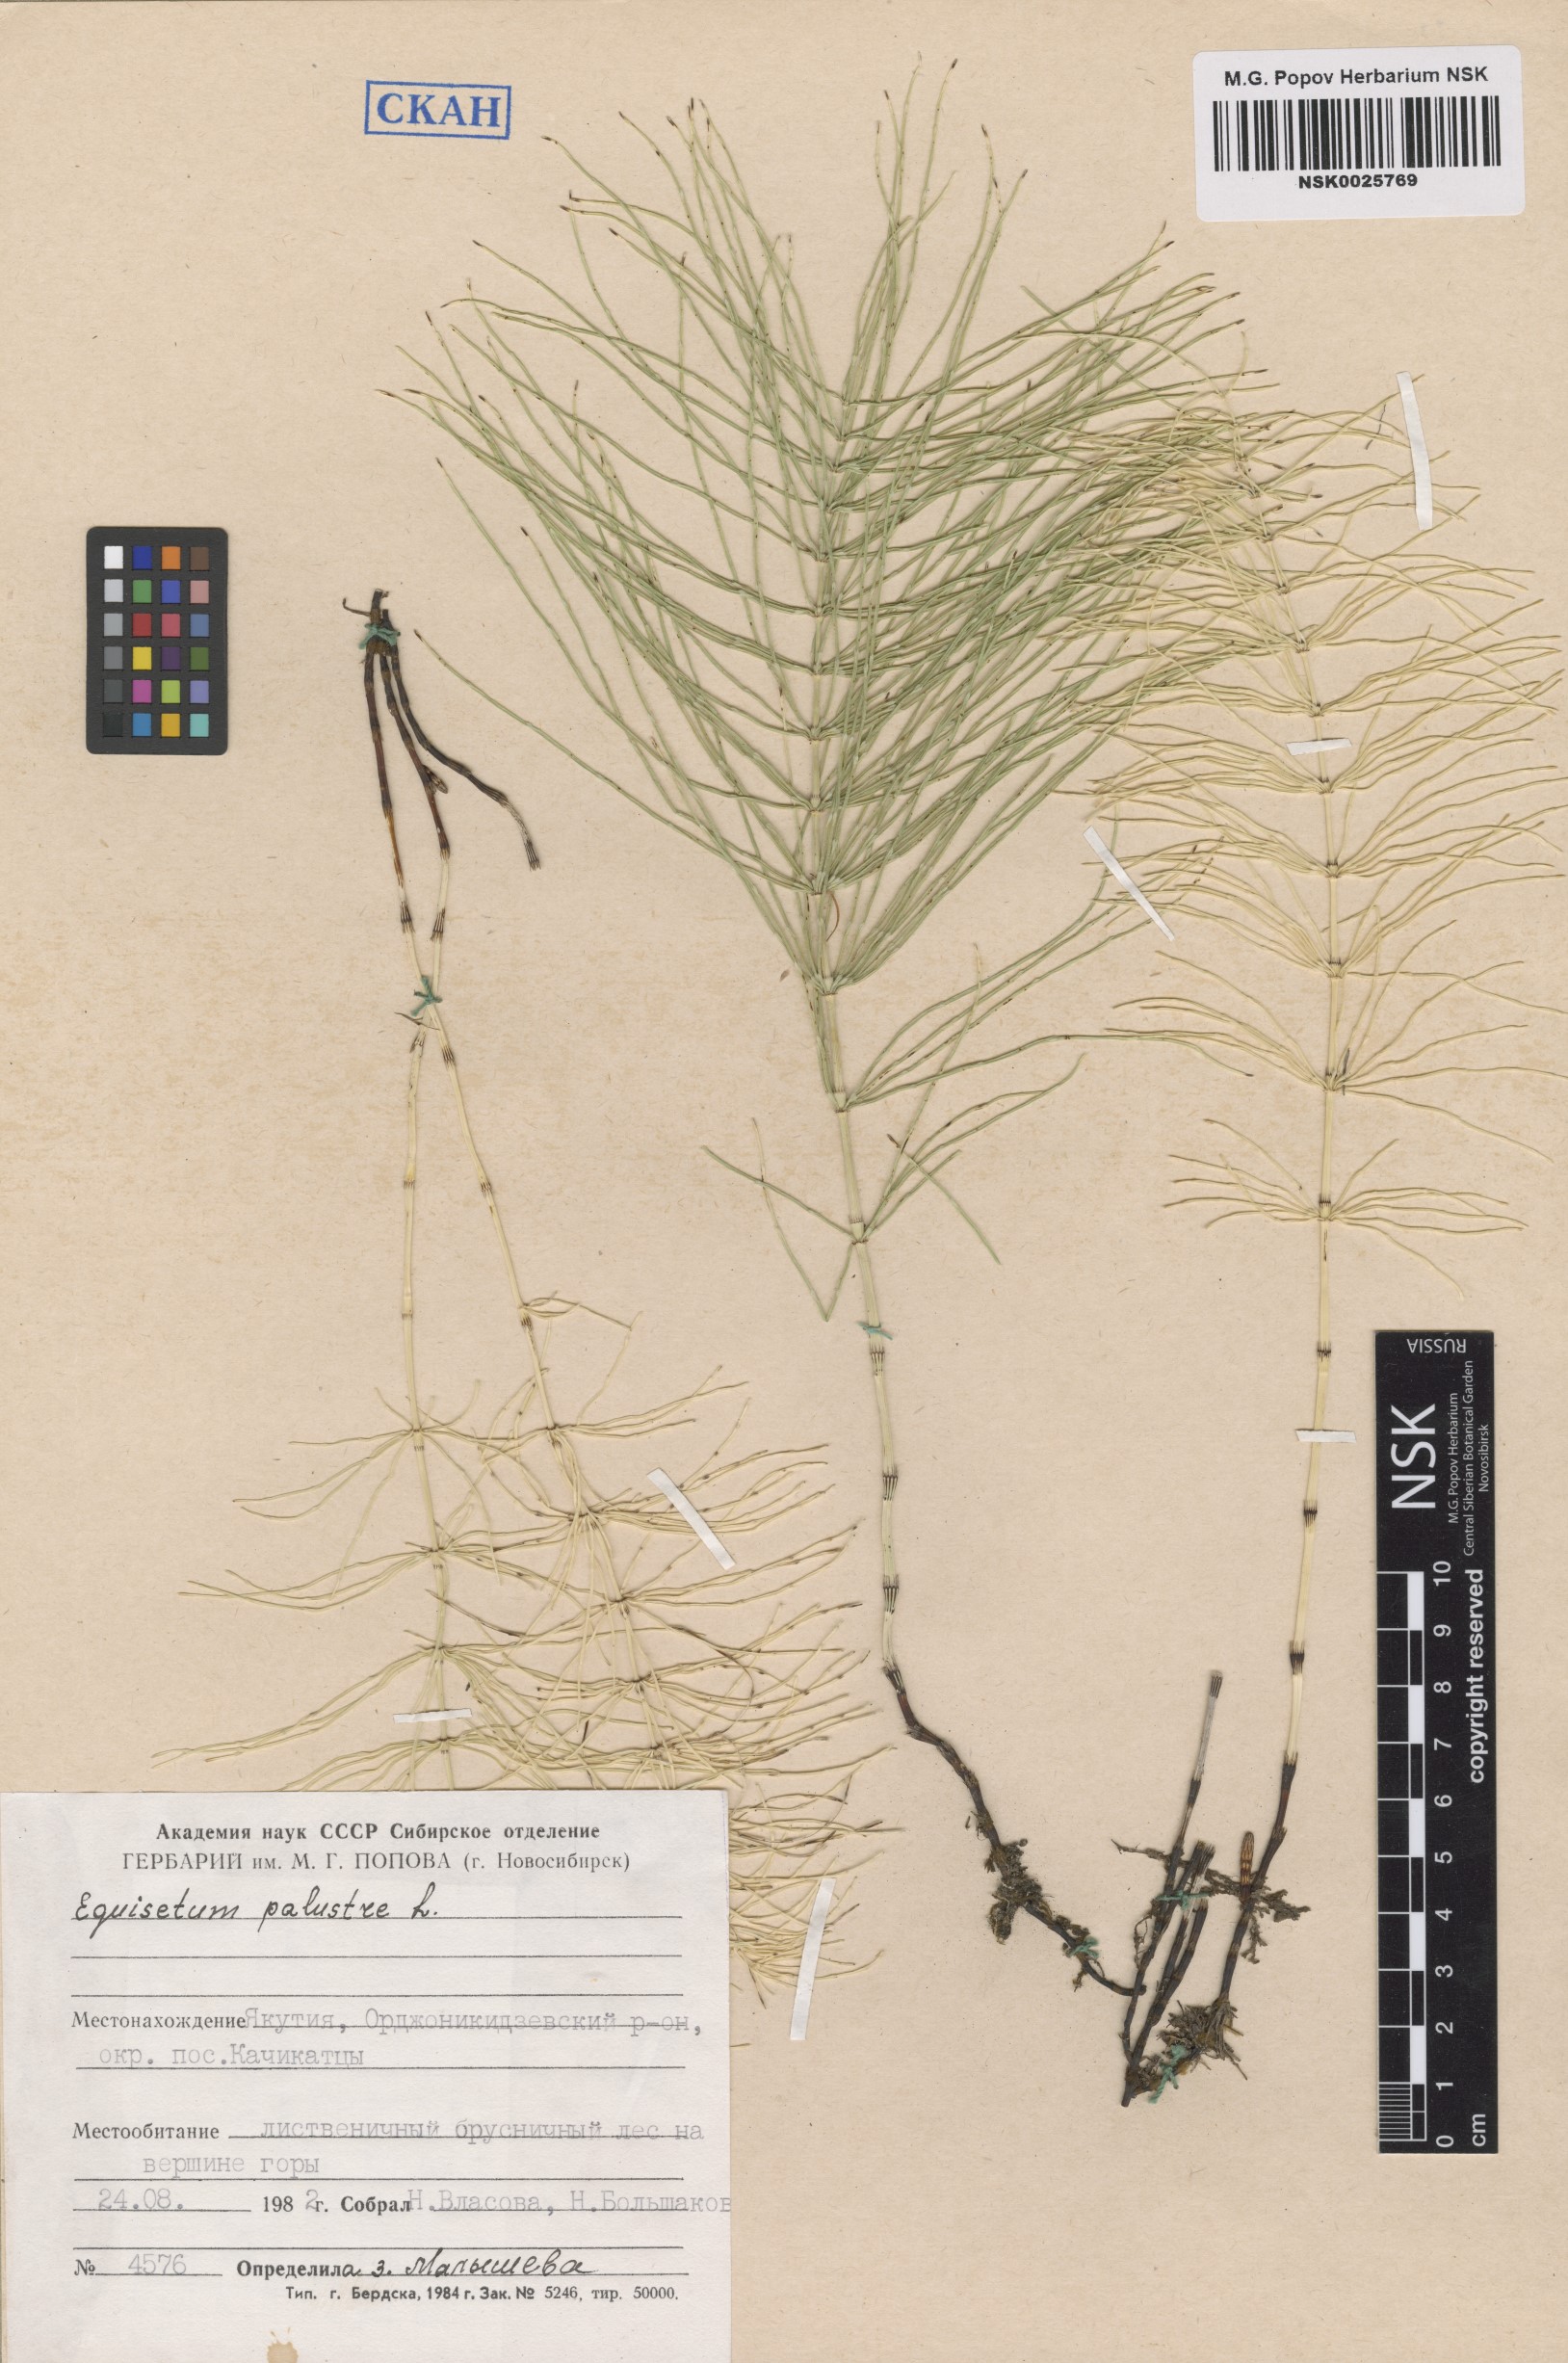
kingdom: Plantae
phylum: Tracheophyta
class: Polypodiopsida
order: Equisetales
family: Equisetaceae
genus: Equisetum
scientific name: Equisetum palustre
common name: Marsh horsetail
